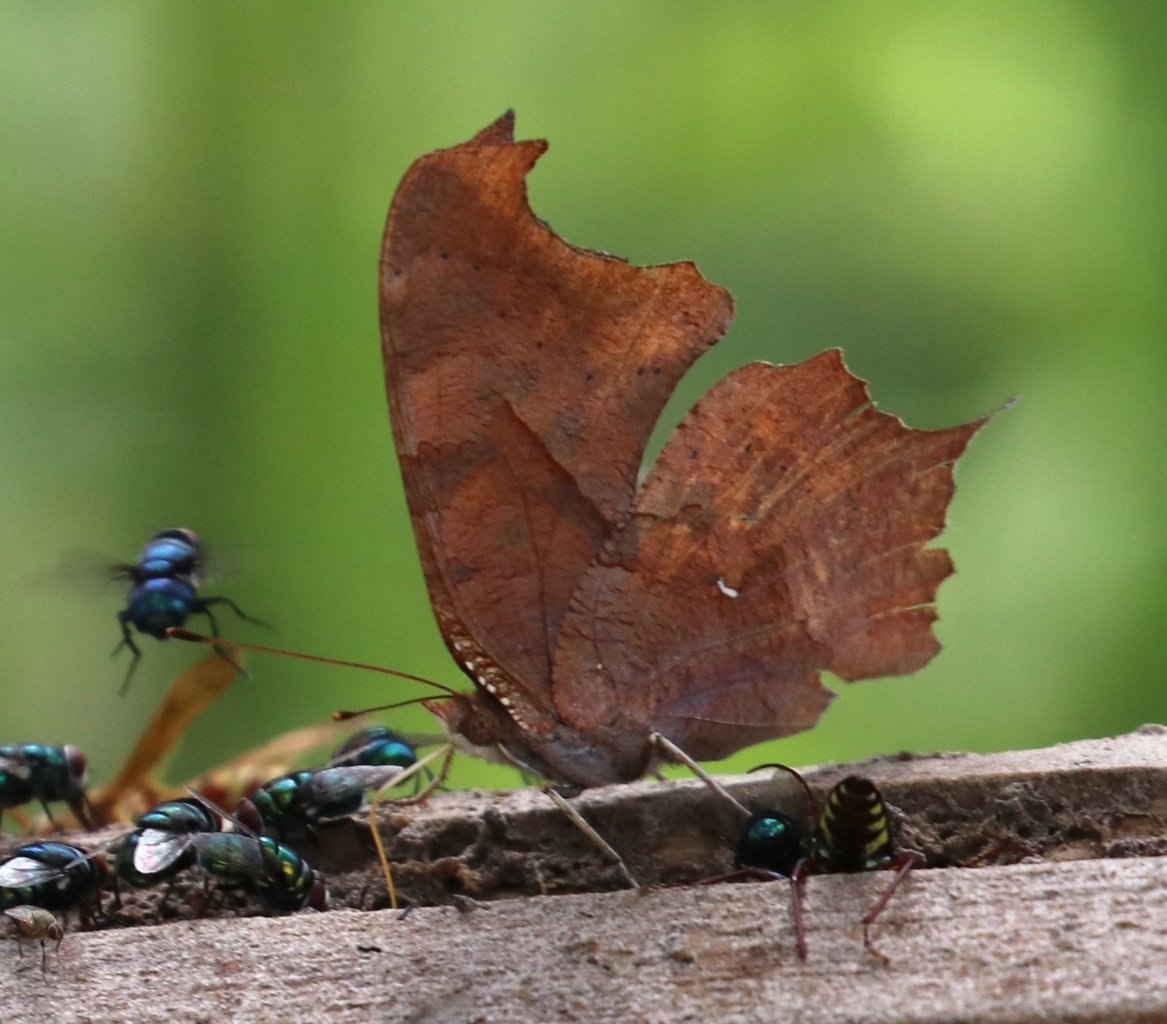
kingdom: Animalia
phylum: Arthropoda
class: Insecta
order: Lepidoptera
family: Nymphalidae
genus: Polygonia
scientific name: Polygonia interrogationis
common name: Question Mark
